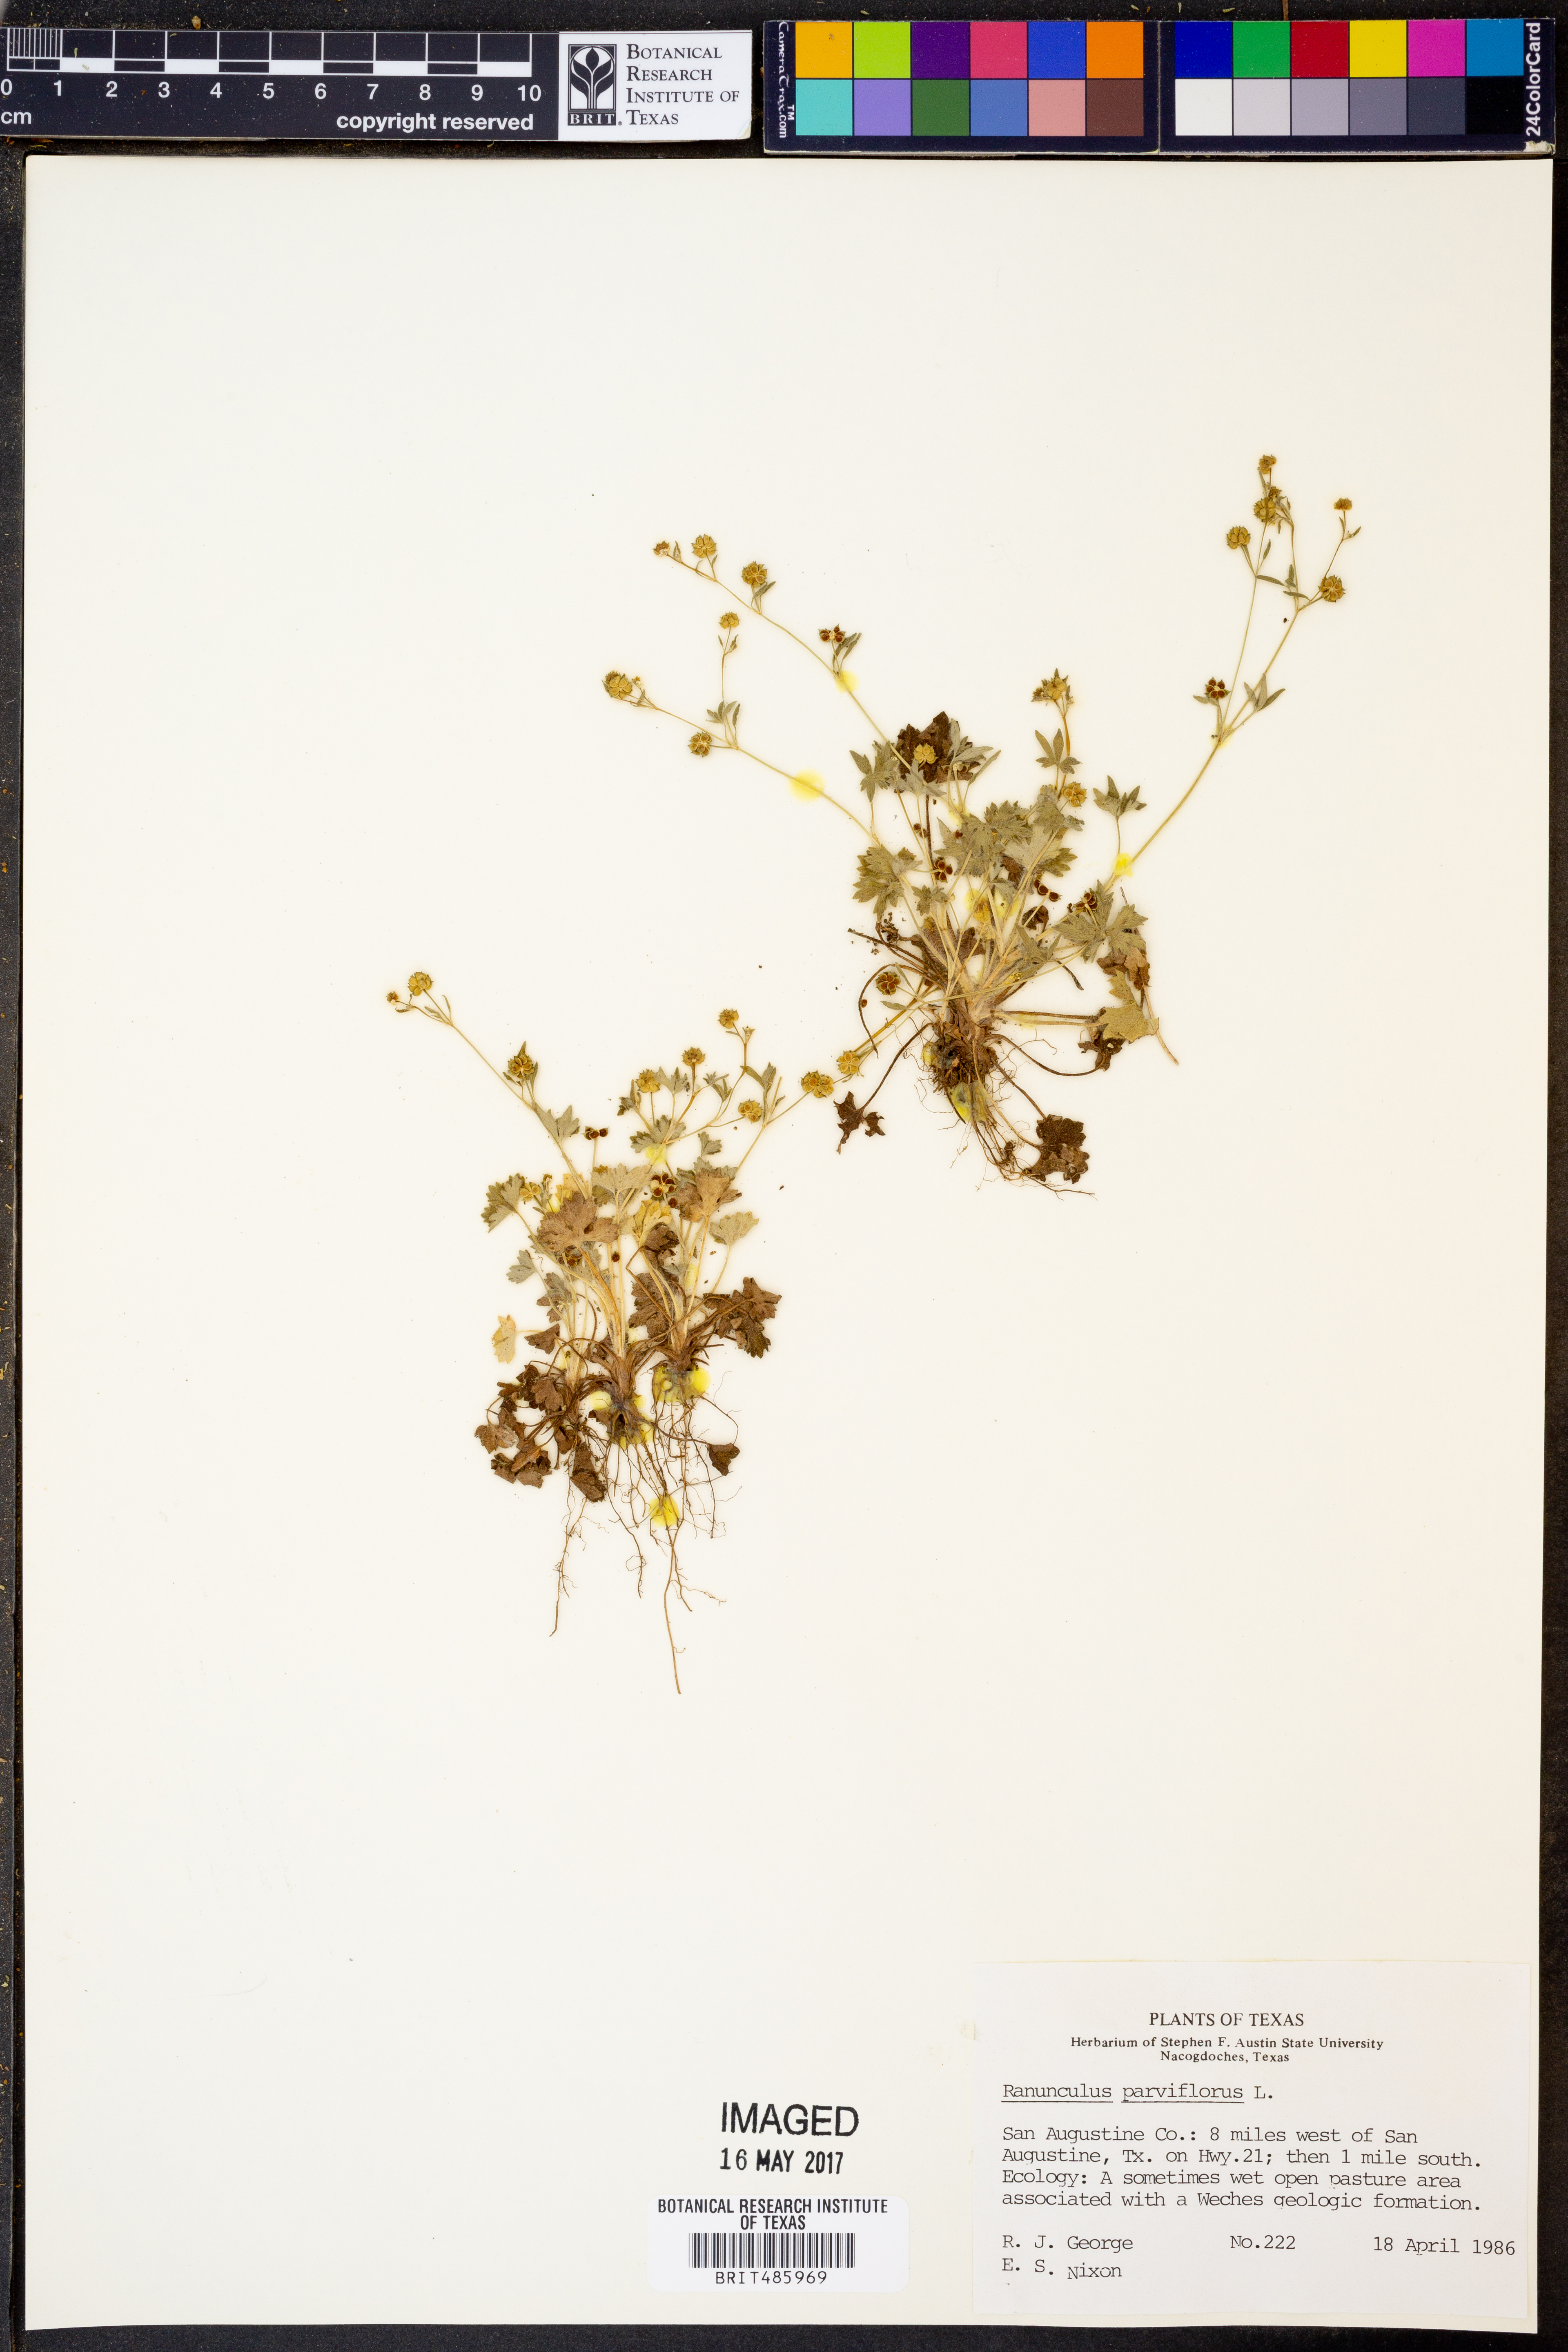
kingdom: Plantae
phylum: Tracheophyta
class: Magnoliopsida
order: Ranunculales
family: Ranunculaceae
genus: Ranunculus
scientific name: Ranunculus parviflorus
